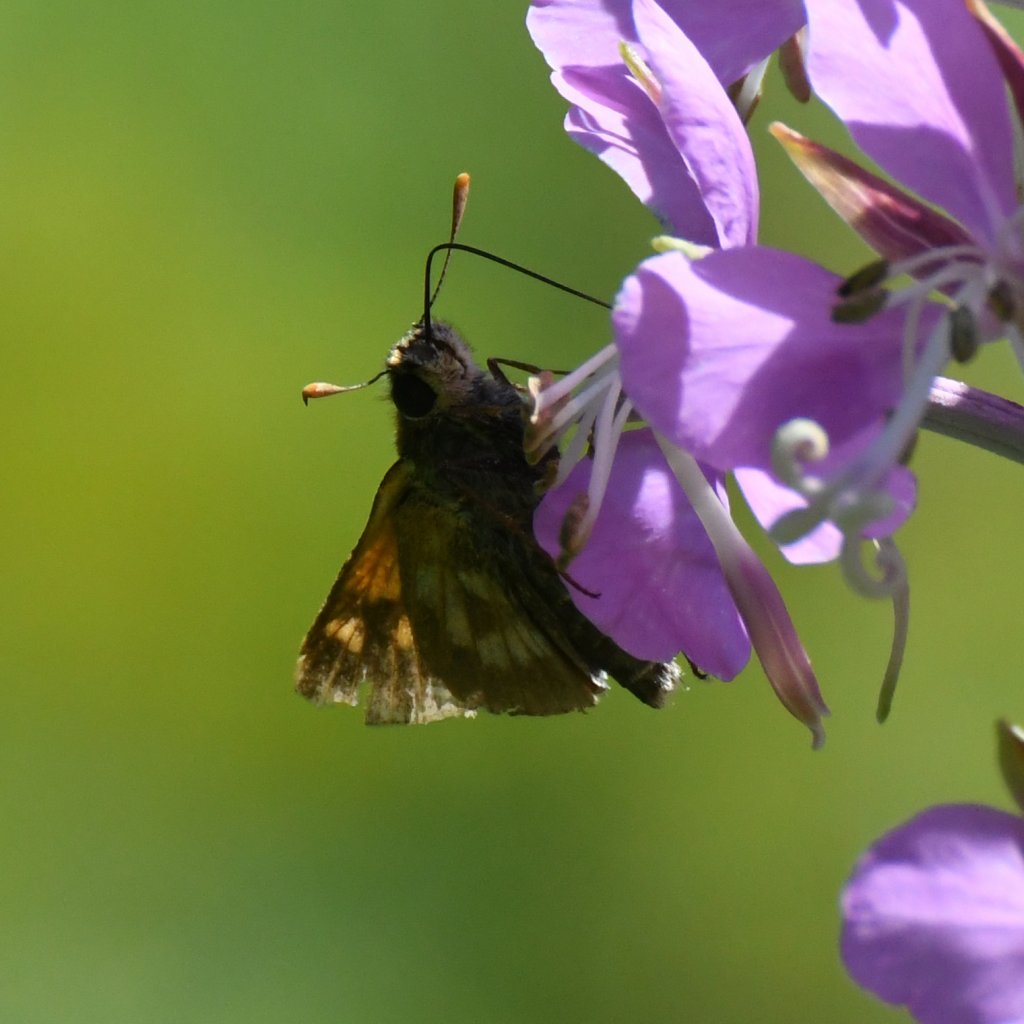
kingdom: Animalia
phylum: Arthropoda
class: Insecta
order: Lepidoptera
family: Hesperiidae
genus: Polites
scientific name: Polites
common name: Long Dash Skipper
